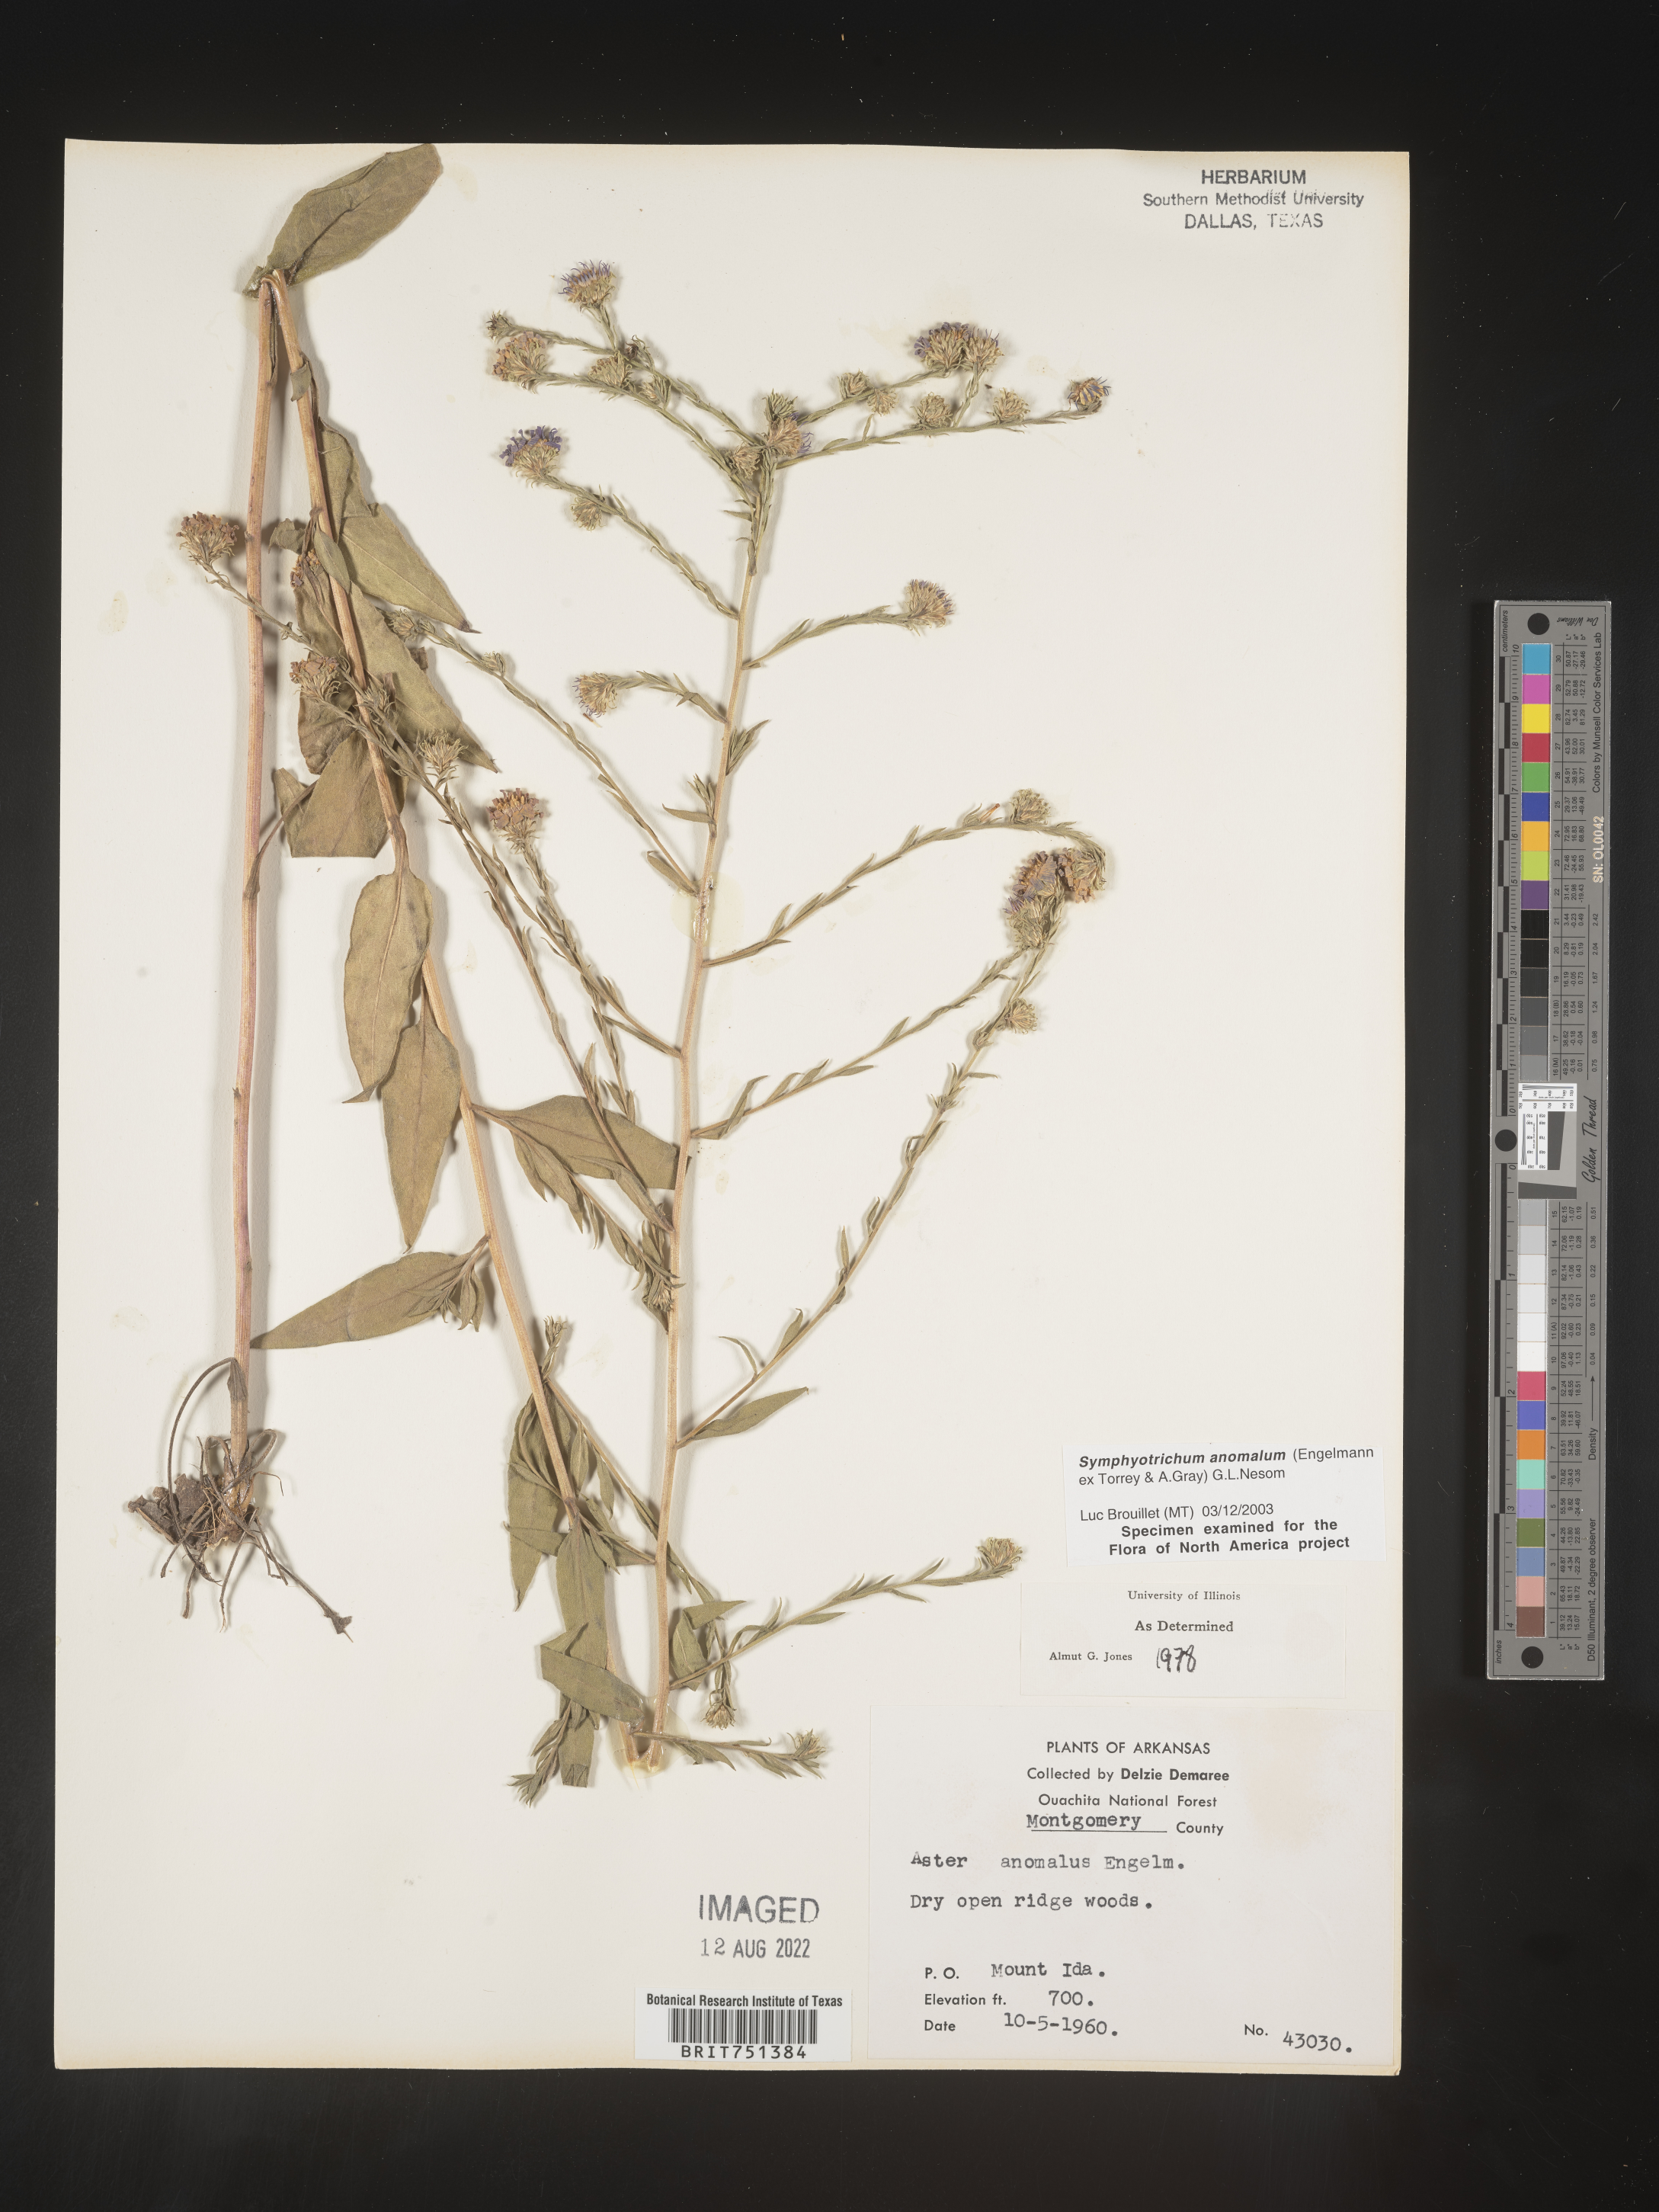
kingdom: Plantae
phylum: Tracheophyta
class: Magnoliopsida
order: Asterales
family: Asteraceae
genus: Symphyotrichum
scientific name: Symphyotrichum anomalum
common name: Many-ray aster
